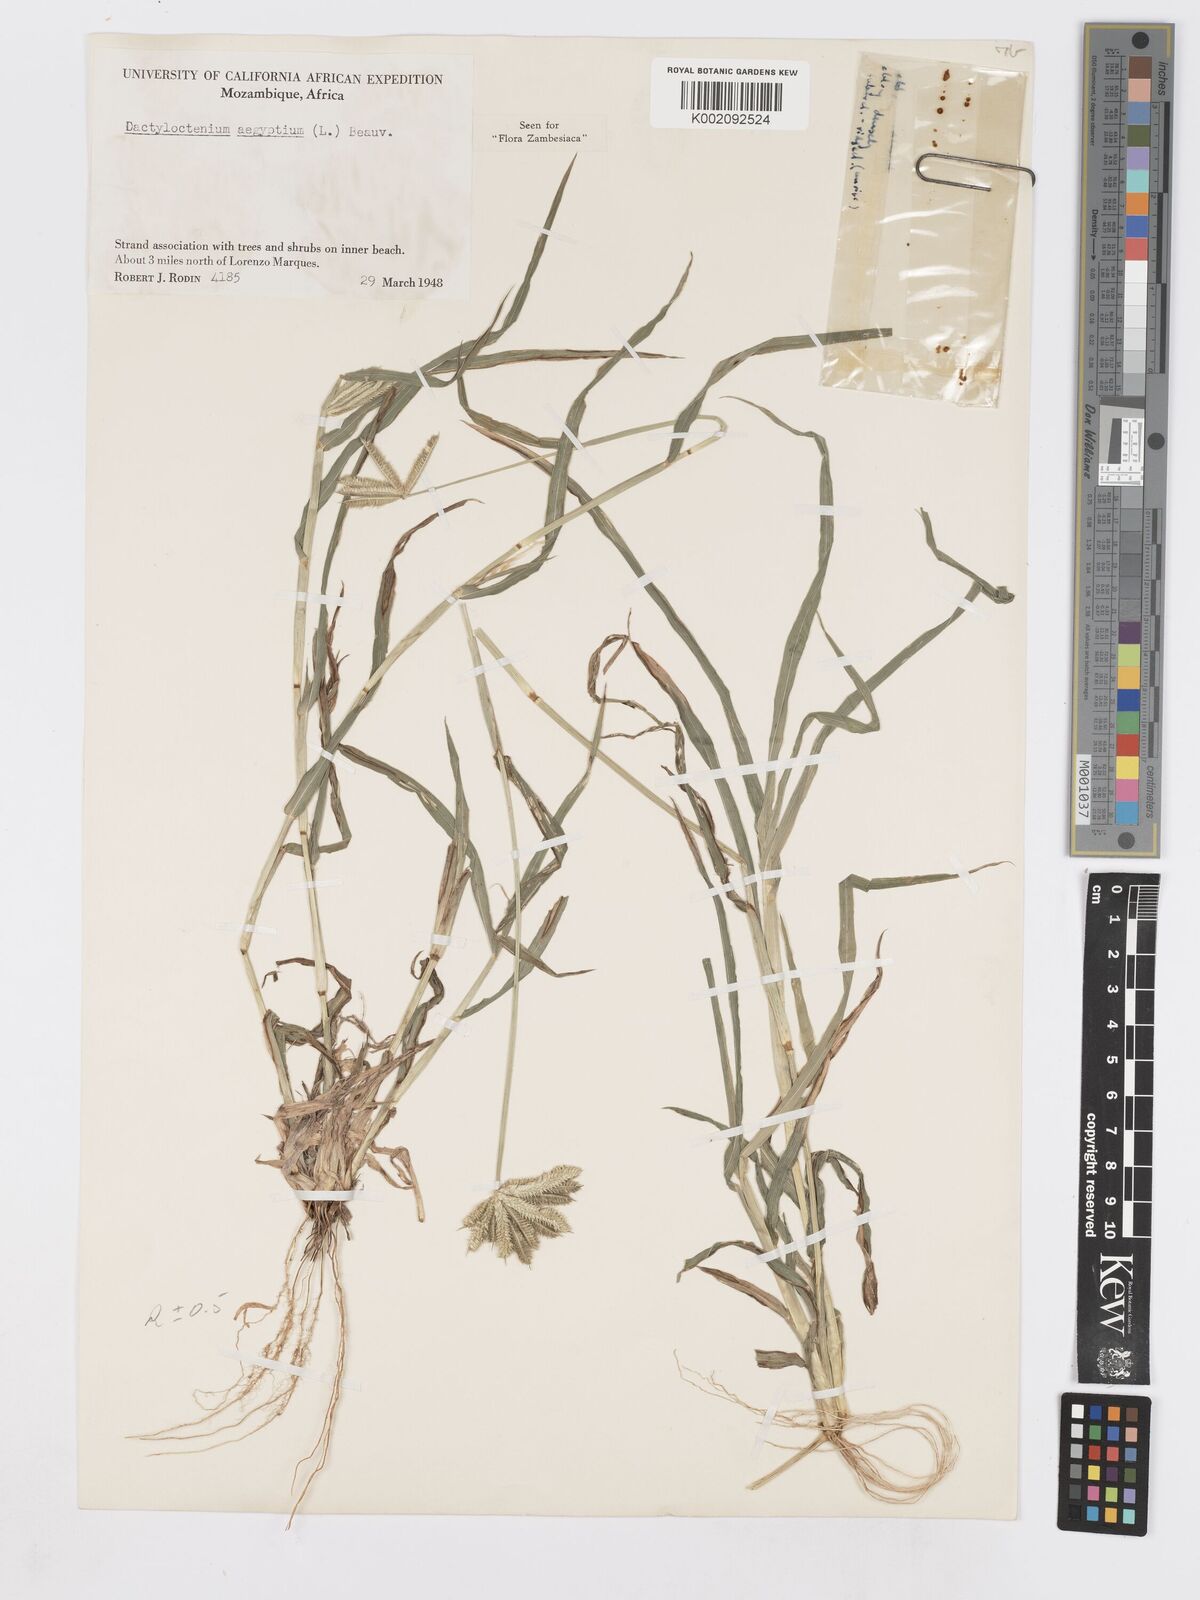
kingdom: Plantae
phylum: Tracheophyta
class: Liliopsida
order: Poales
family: Poaceae
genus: Dactyloctenium
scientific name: Dactyloctenium aegyptium
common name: Egyptian grass
